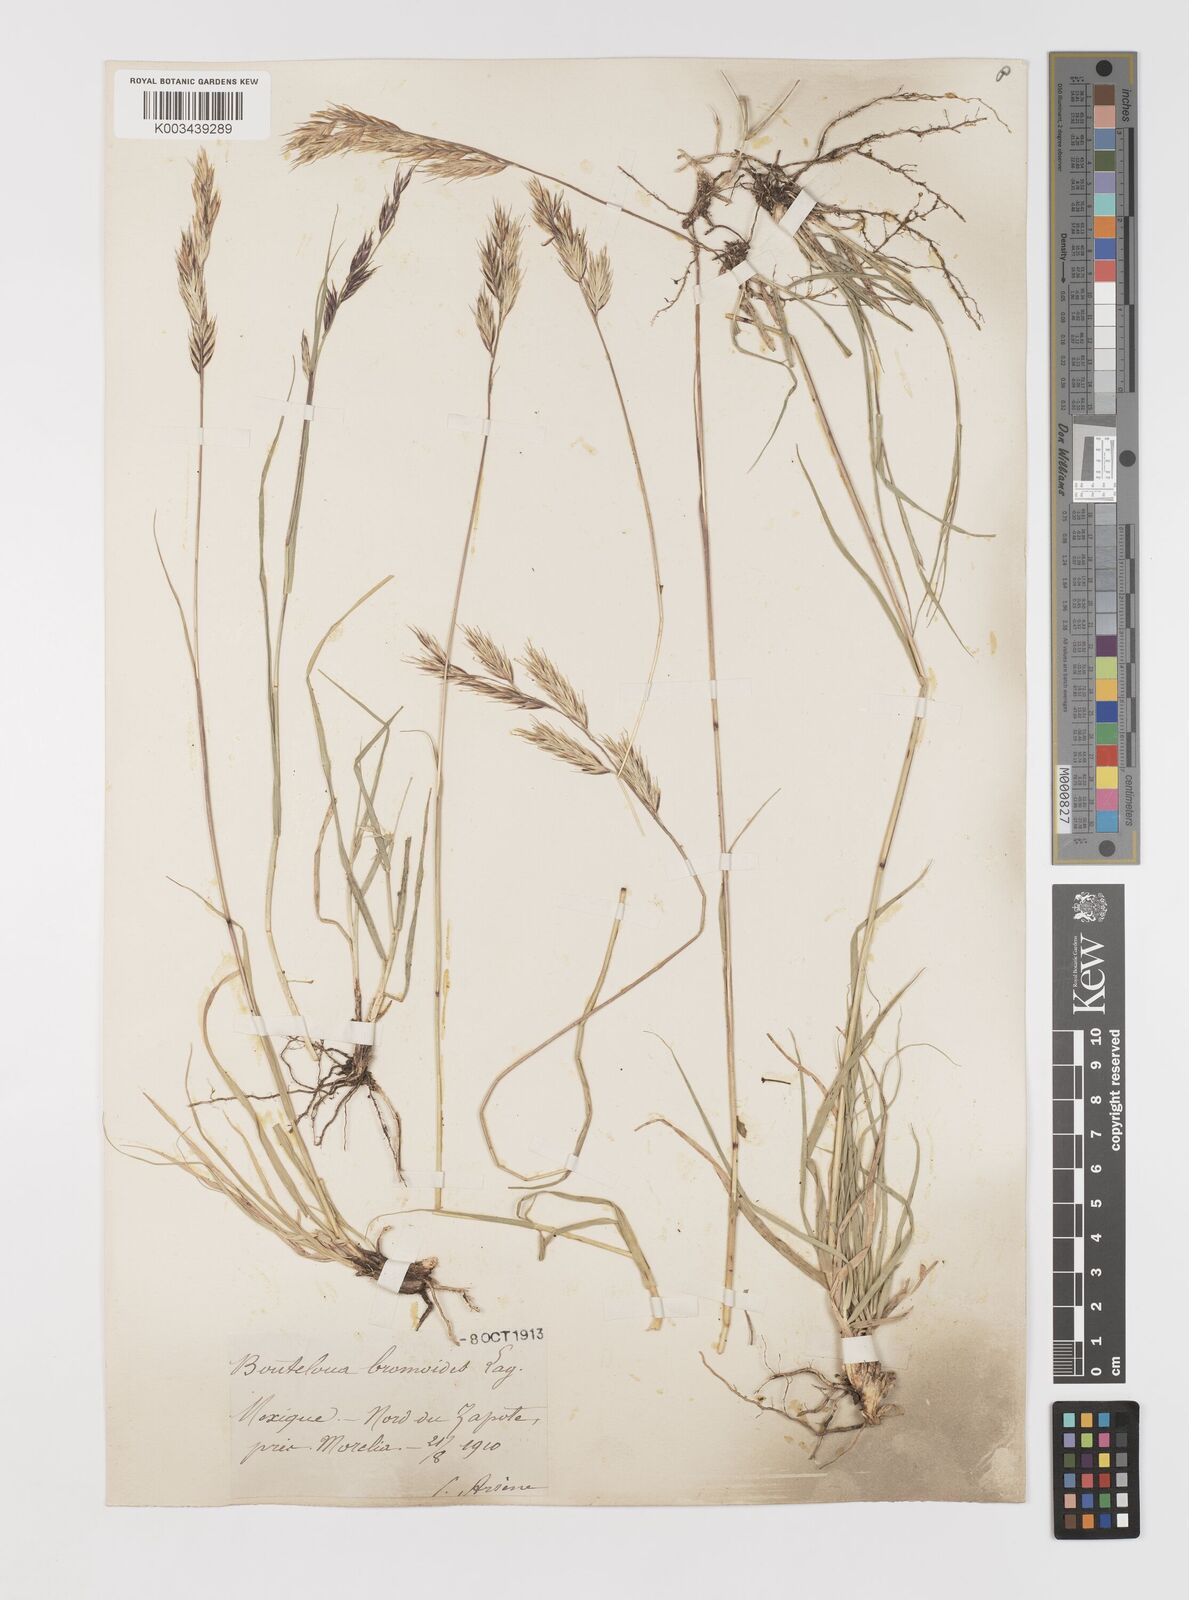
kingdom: Plantae
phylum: Tracheophyta
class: Liliopsida
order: Poales
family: Poaceae
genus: Bouteloua
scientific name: Bouteloua repens
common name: Slender grama
